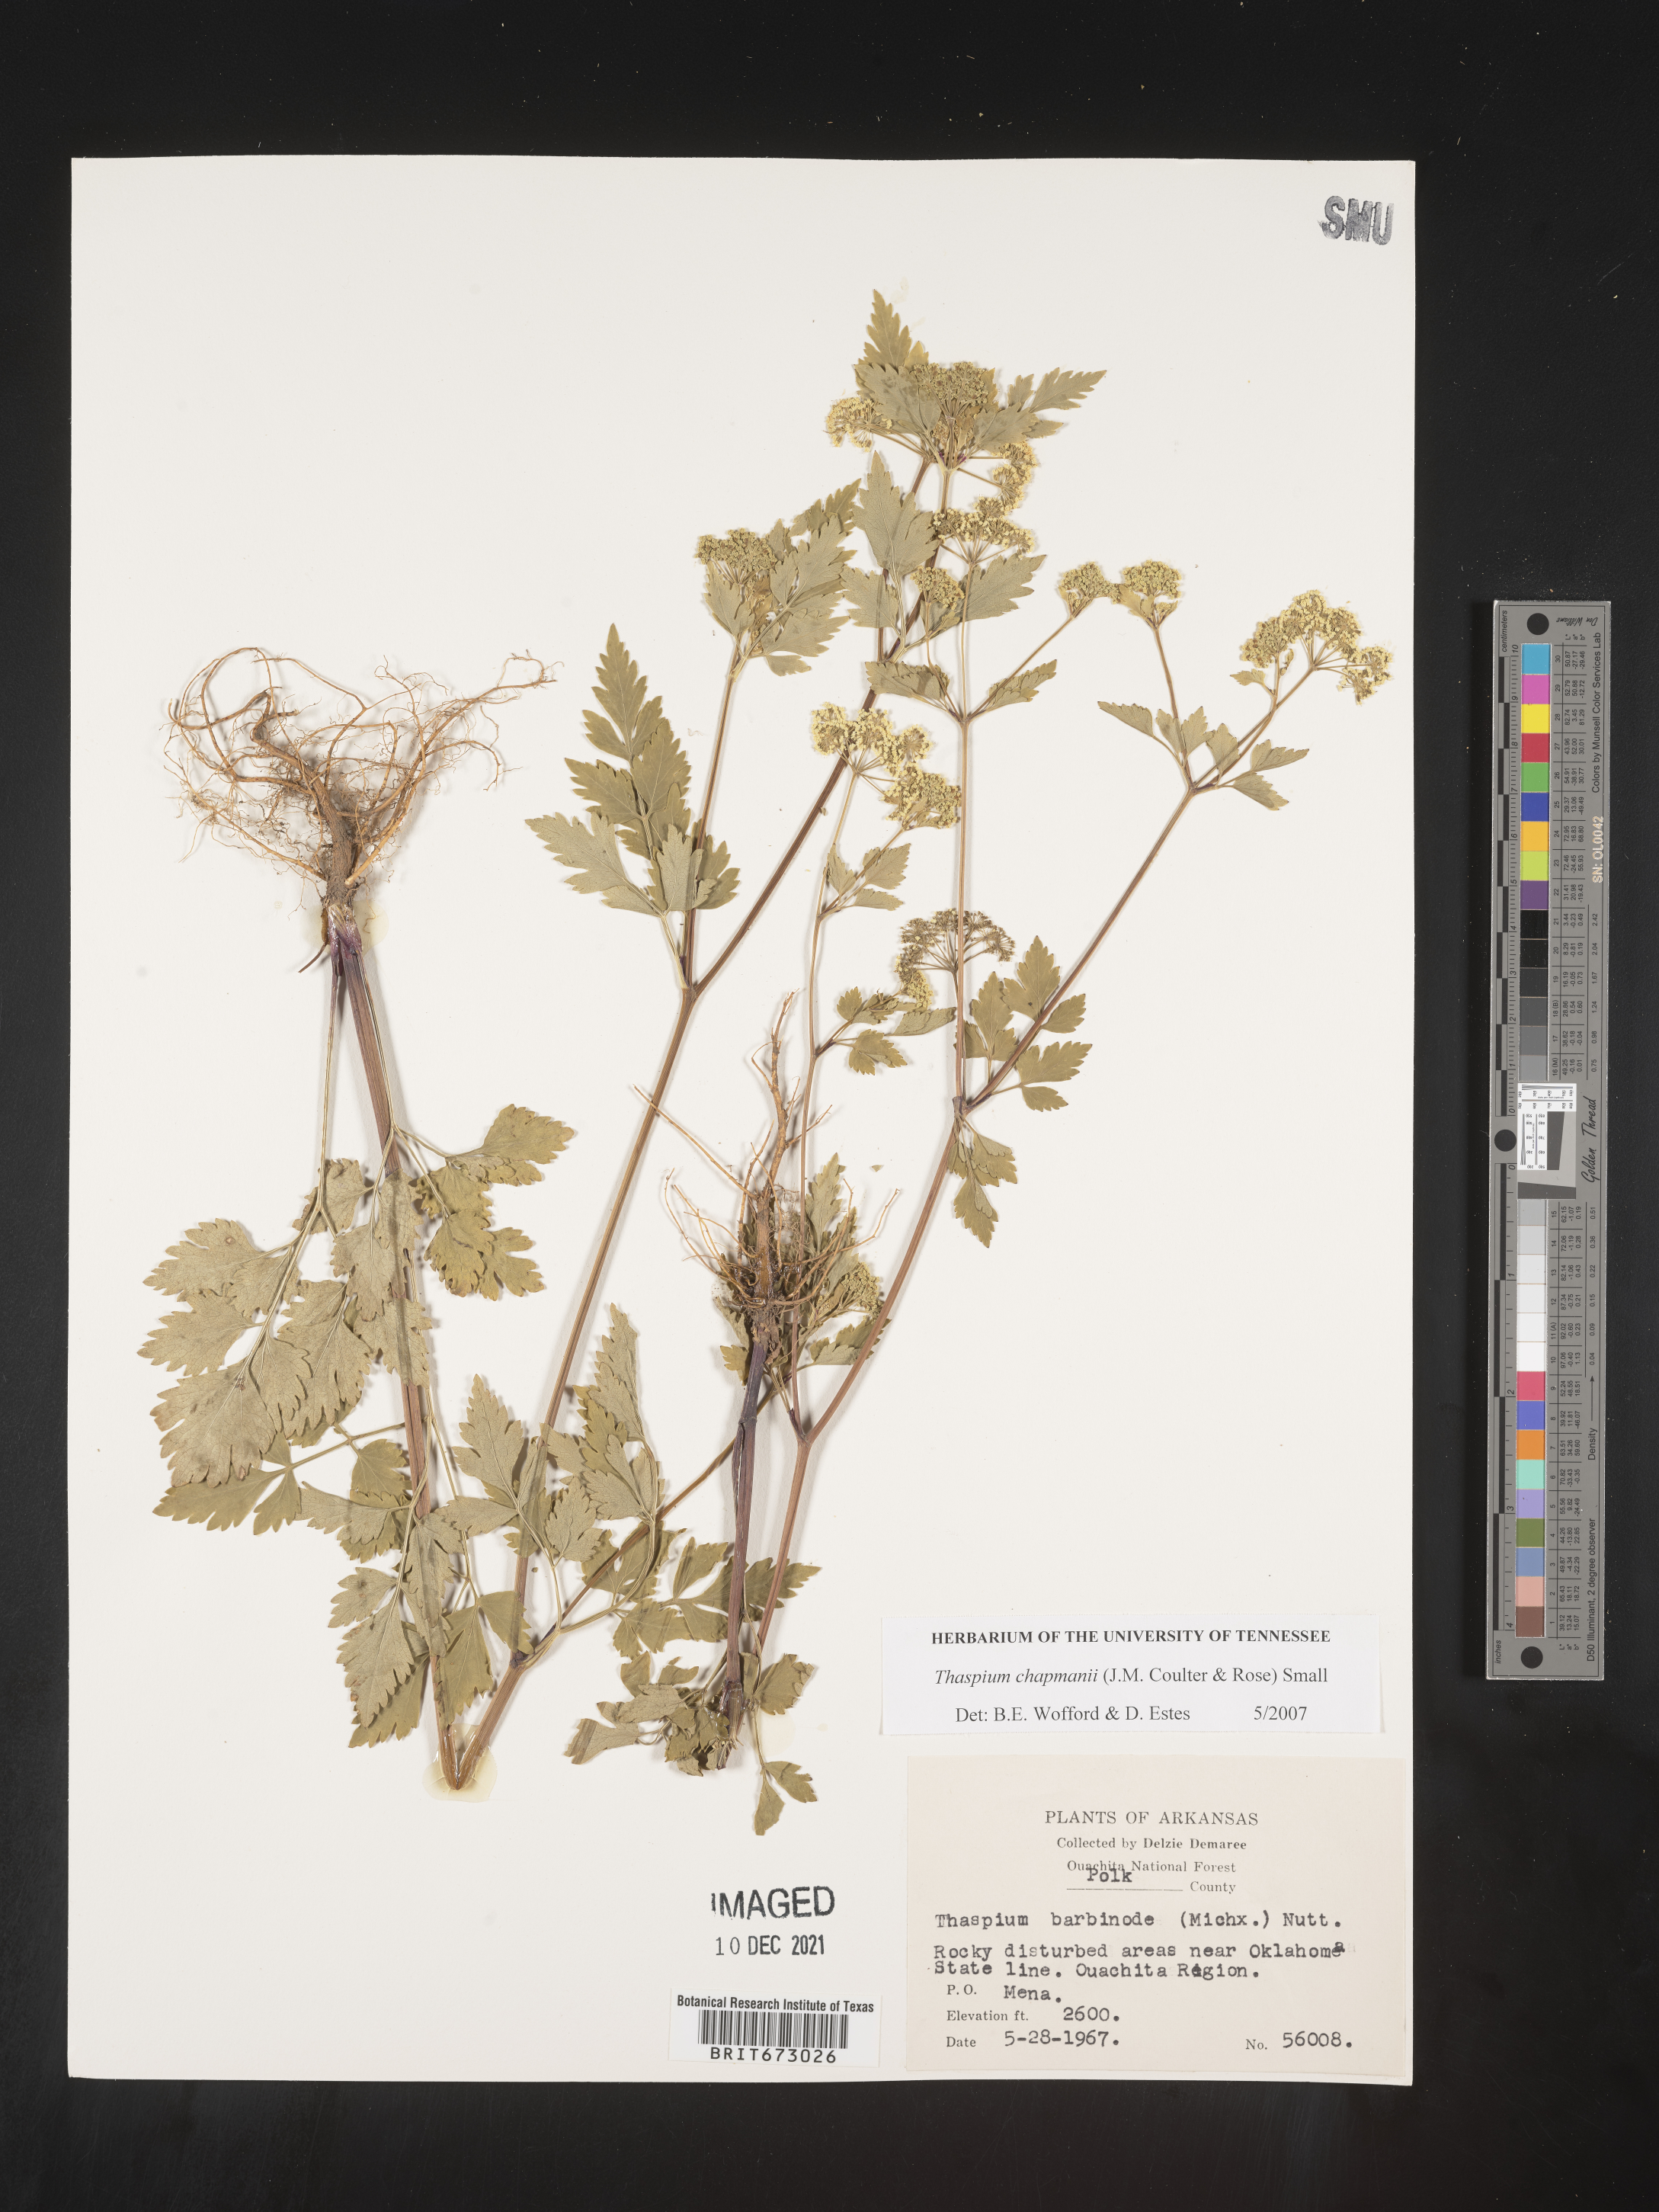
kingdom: Plantae
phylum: Tracheophyta
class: Magnoliopsida
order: Apiales
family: Apiaceae
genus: Thaspium
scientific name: Thaspium barbinode
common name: Bearded meadow-parsnip
